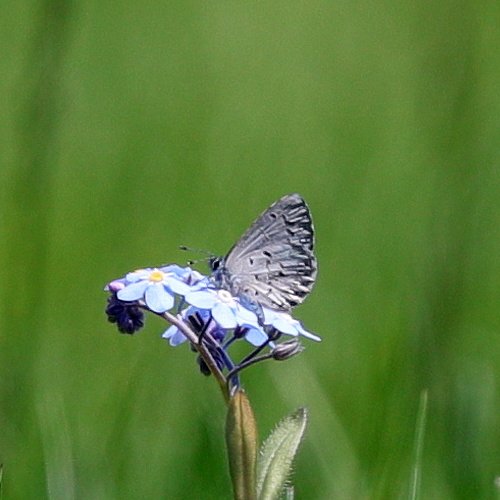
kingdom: Animalia
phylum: Arthropoda
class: Insecta
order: Lepidoptera
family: Lycaenidae
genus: Celastrina
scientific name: Celastrina lucia
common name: Northern Spring Azure
